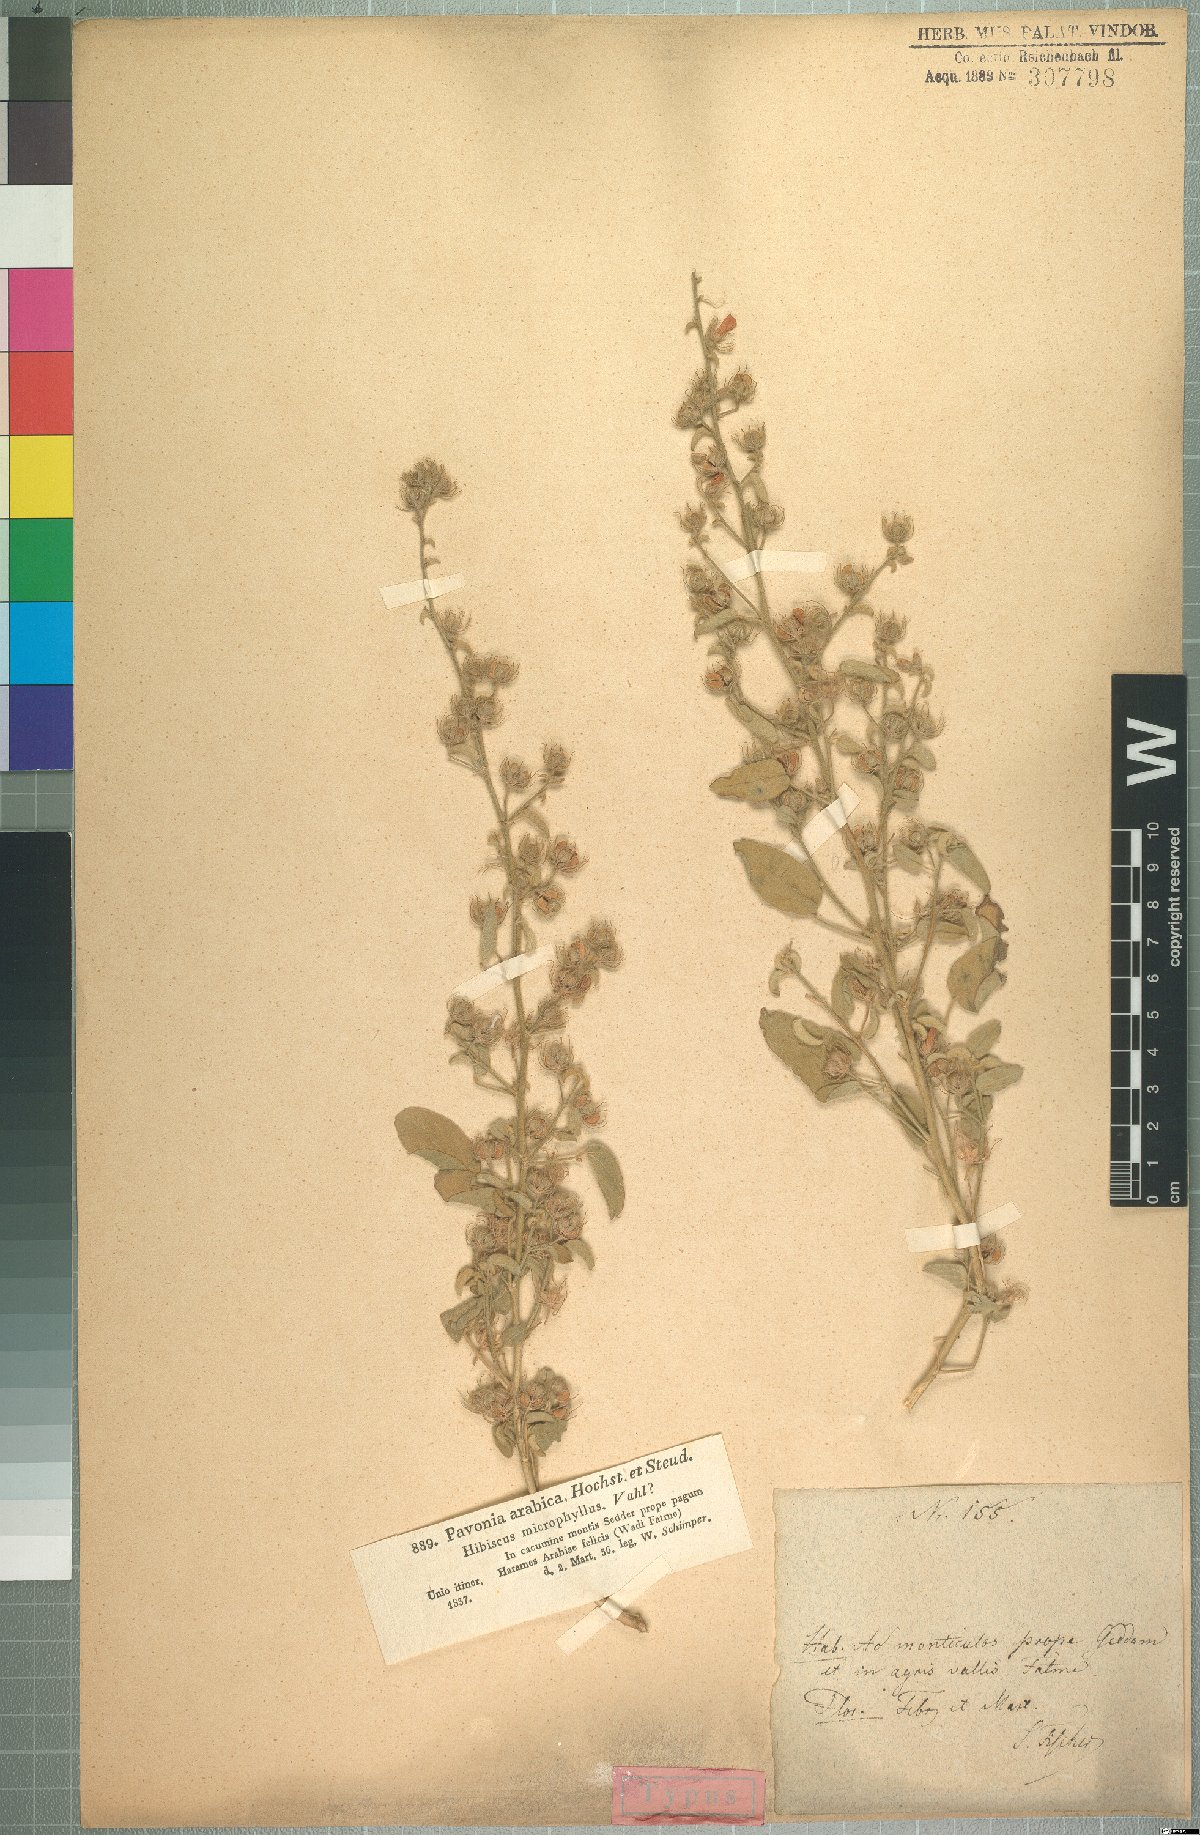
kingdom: Plantae
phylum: Tracheophyta
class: Magnoliopsida
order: Malvales
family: Malvaceae
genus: Pavonia
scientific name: Pavonia arabica
